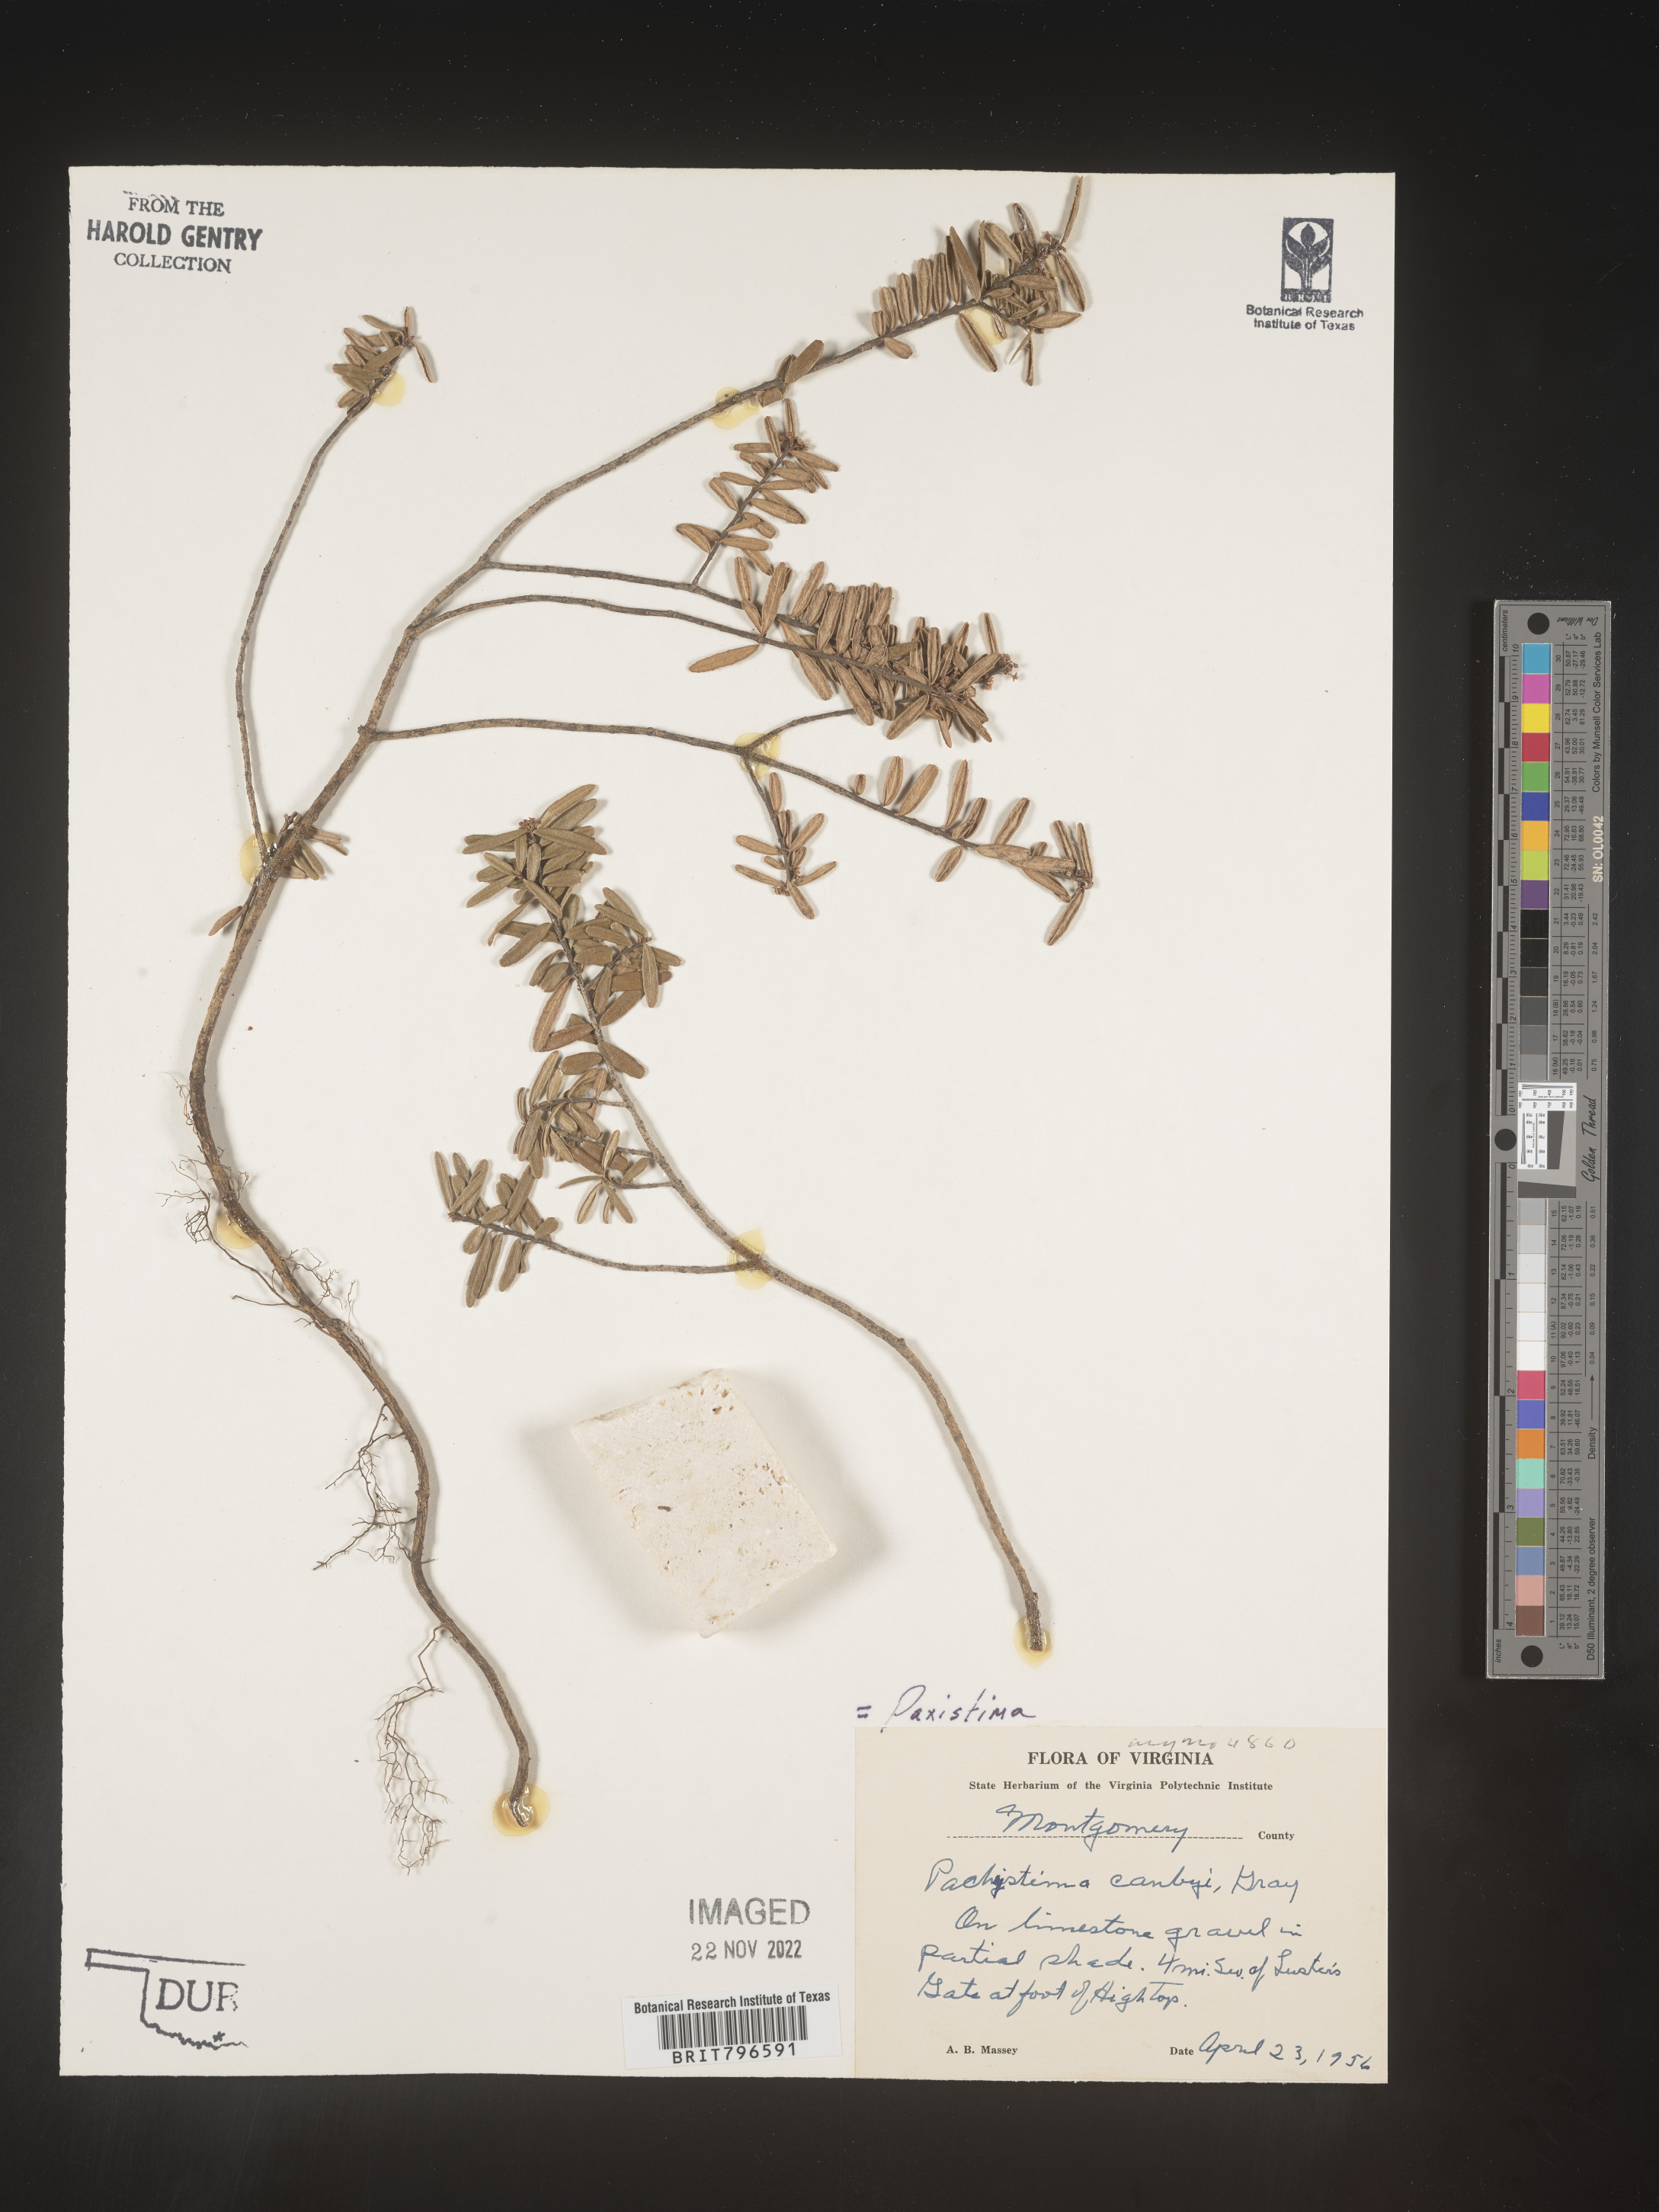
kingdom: Plantae
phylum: Tracheophyta
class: Magnoliopsida
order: Celastrales
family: Celastraceae
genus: Paxistima
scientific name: Paxistima myrsinites
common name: Mountain-lover
